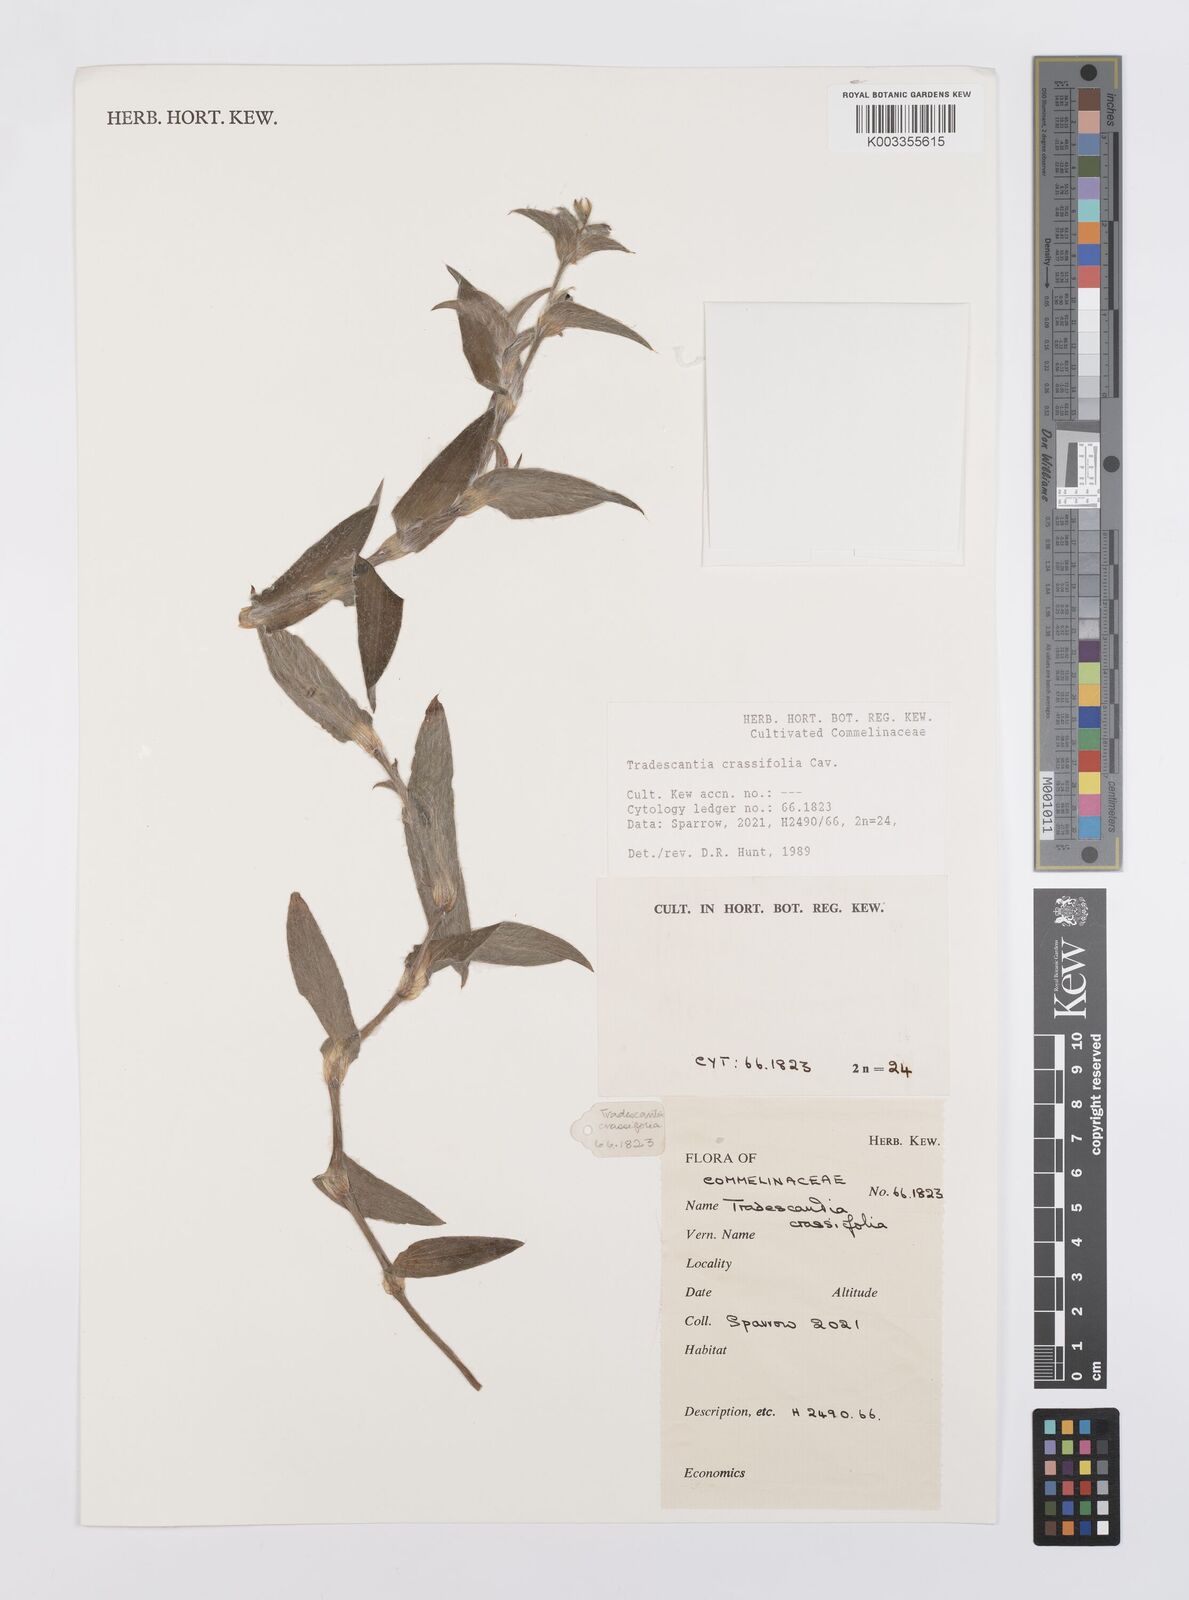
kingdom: Plantae
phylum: Tracheophyta
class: Liliopsida
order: Commelinales
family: Commelinaceae
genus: Tradescantia
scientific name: Tradescantia crassifolia
